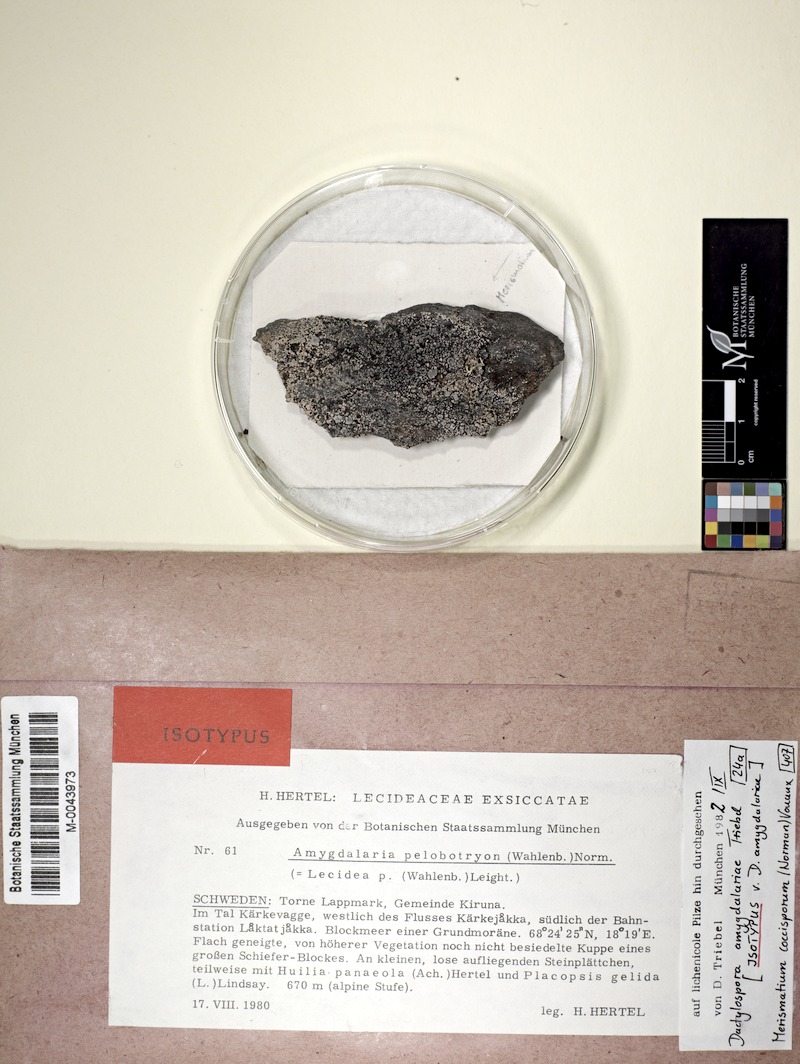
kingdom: Fungi
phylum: Ascomycota
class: Lecanoromycetes
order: Lecideales
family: Lecideaceae
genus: Amygdalaria
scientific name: Amygdalaria pelobotryon
